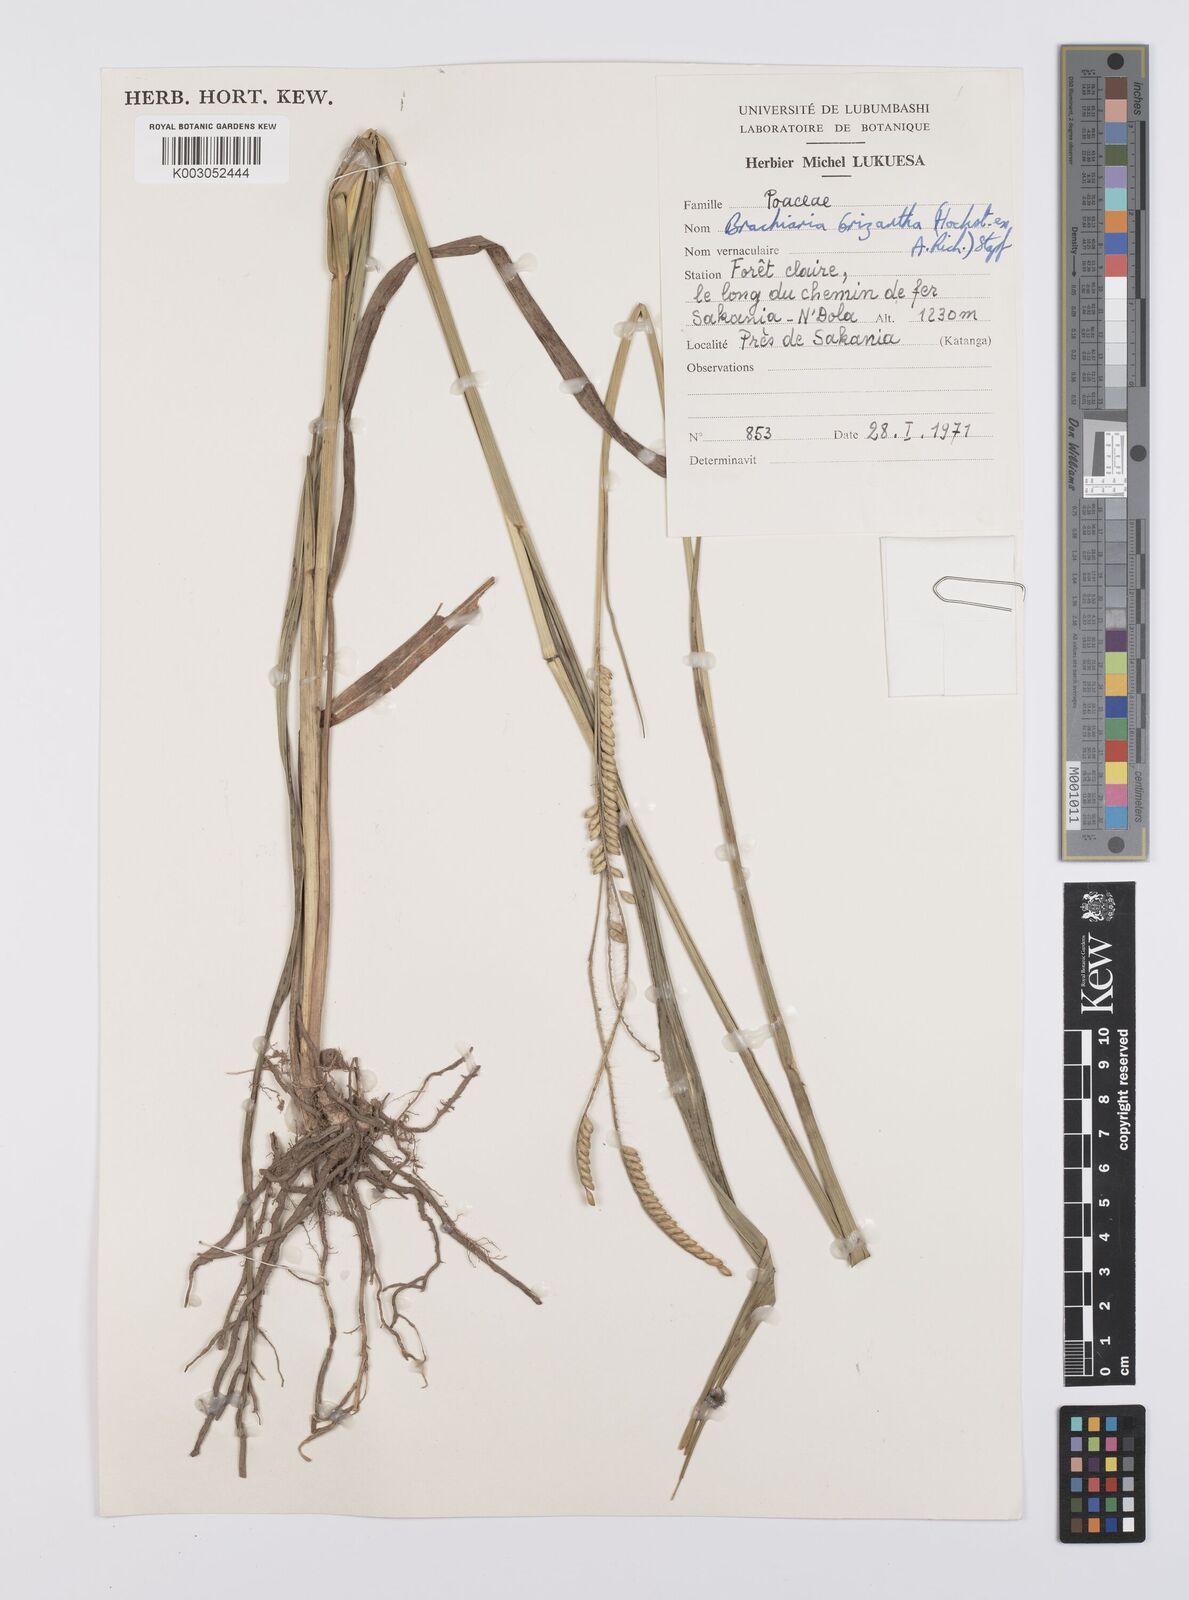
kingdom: Plantae
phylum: Tracheophyta
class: Liliopsida
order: Poales
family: Poaceae
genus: Urochloa
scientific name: Urochloa brizantha
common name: Palisade signalgrass
